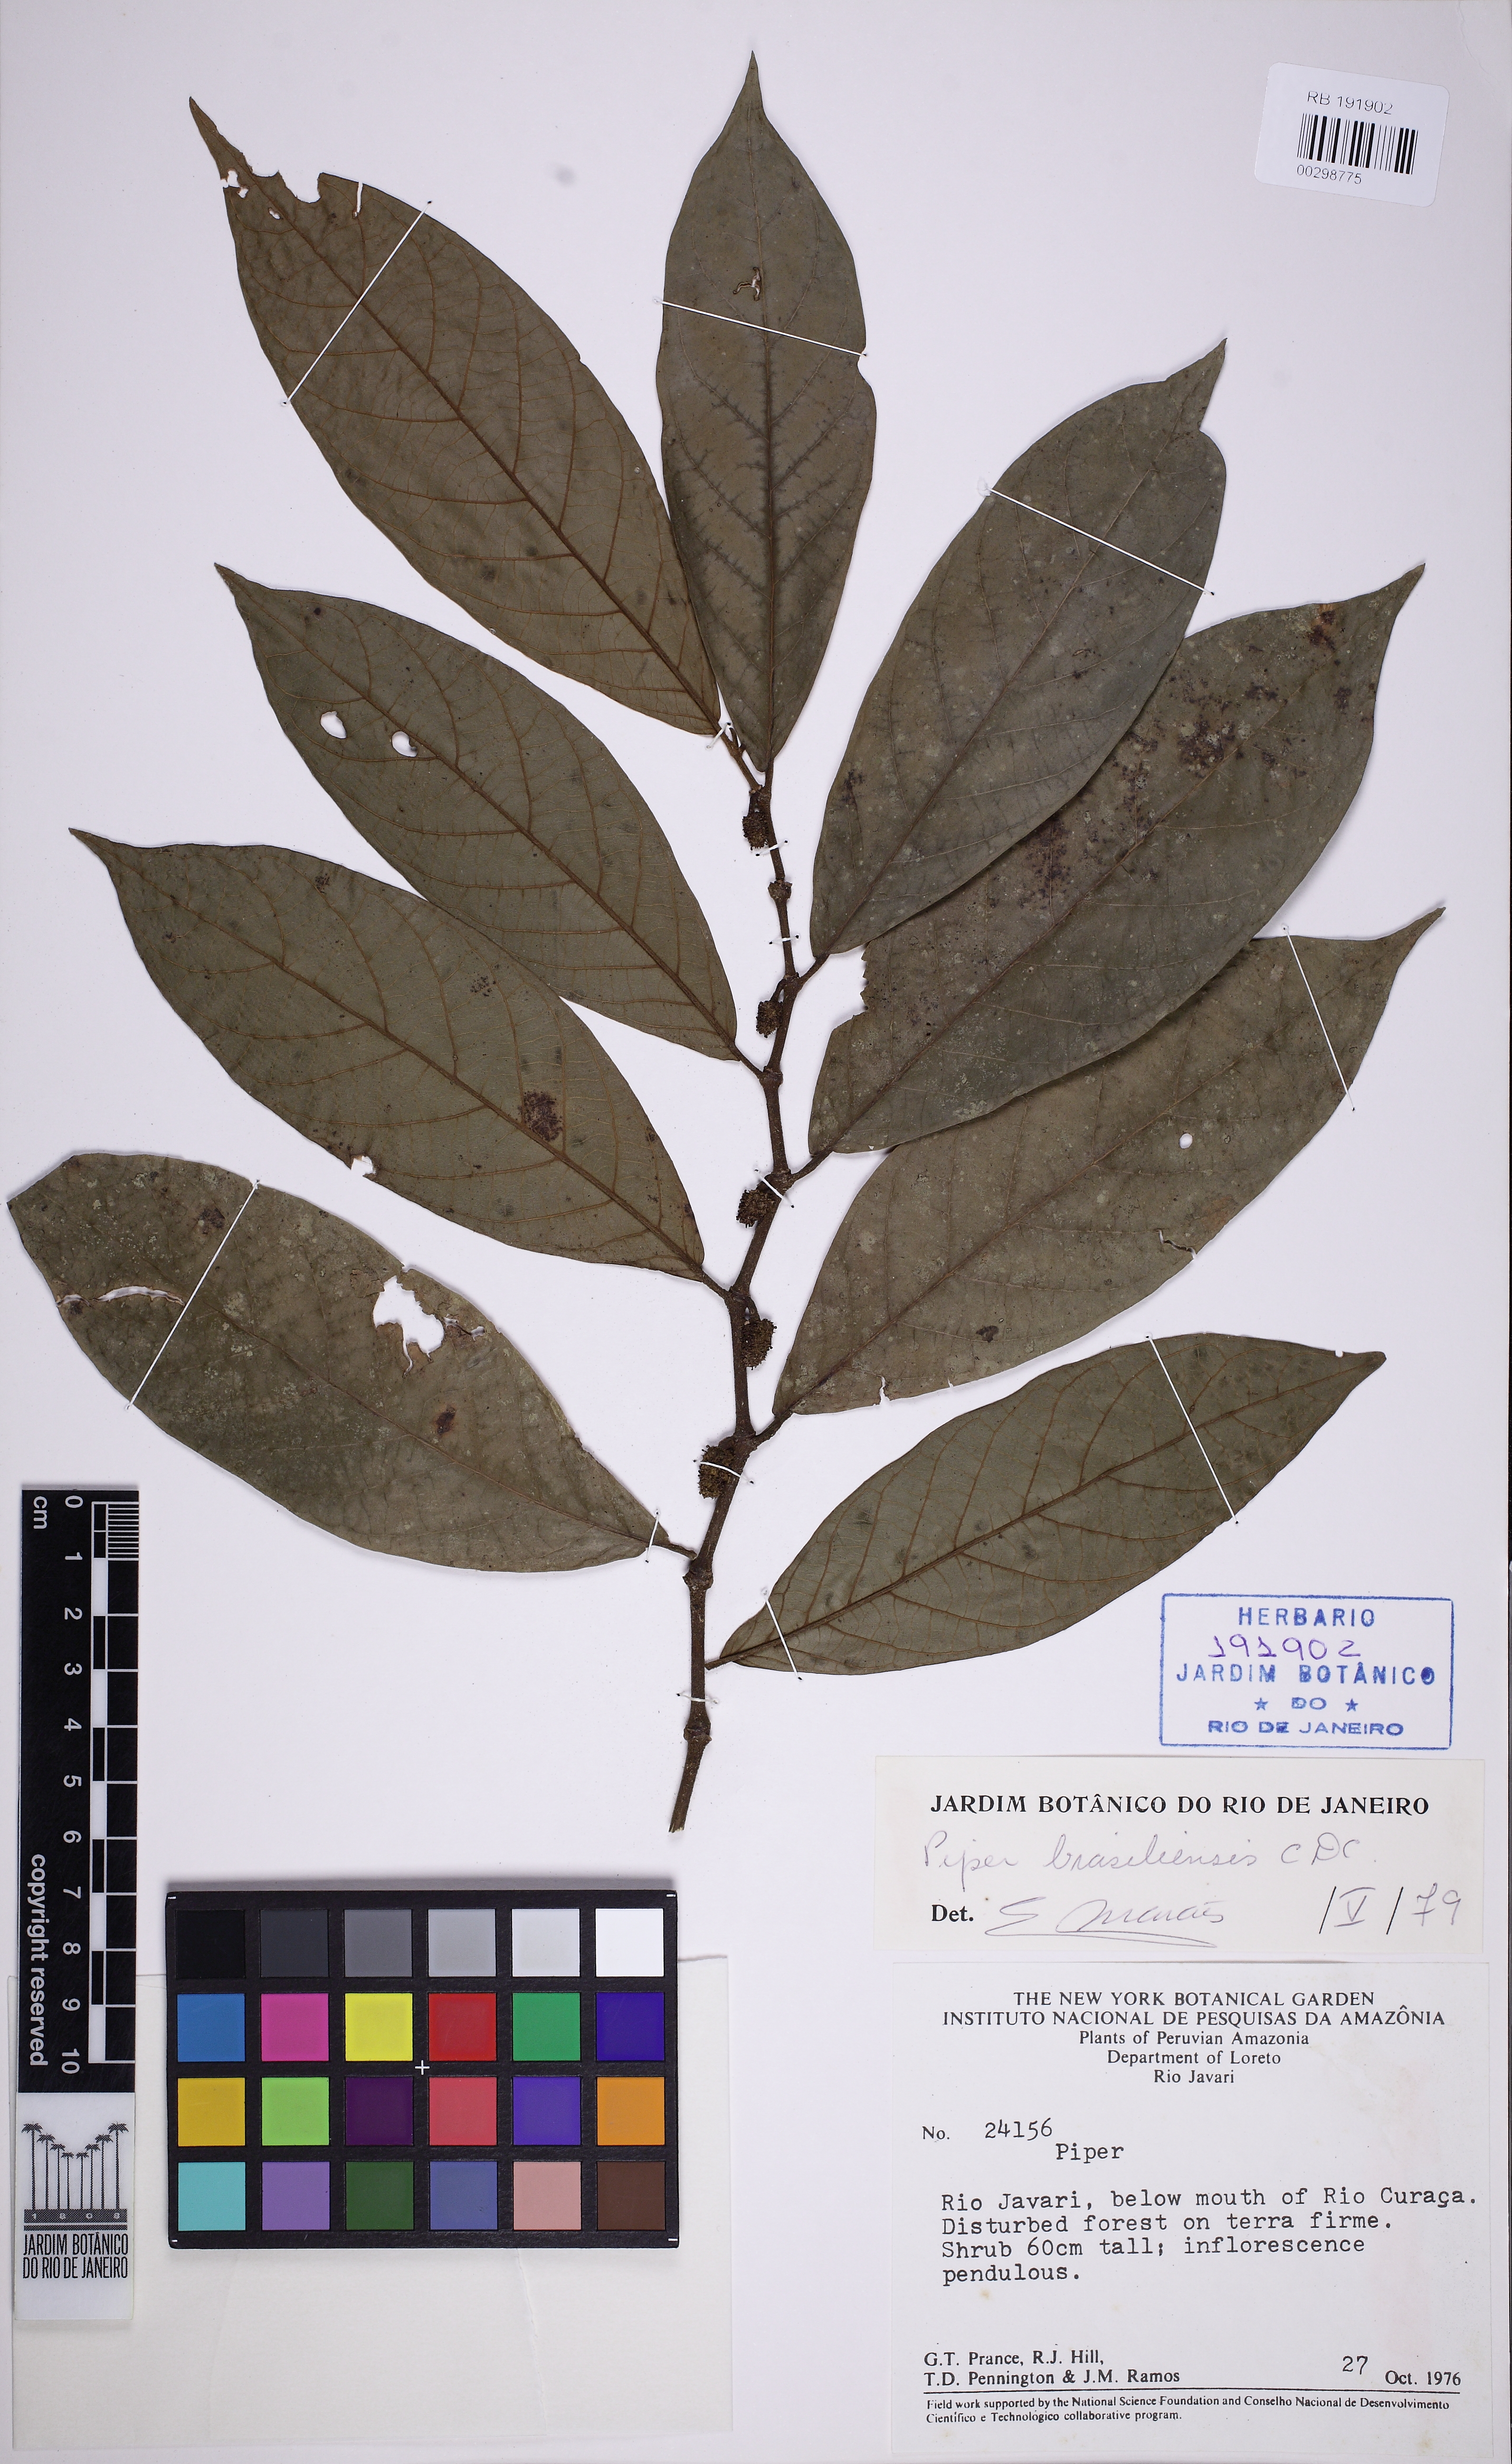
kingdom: Plantae
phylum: Tracheophyta
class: Magnoliopsida
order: Piperales
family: Piperaceae
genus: Piper
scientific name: Piper brasiliense
